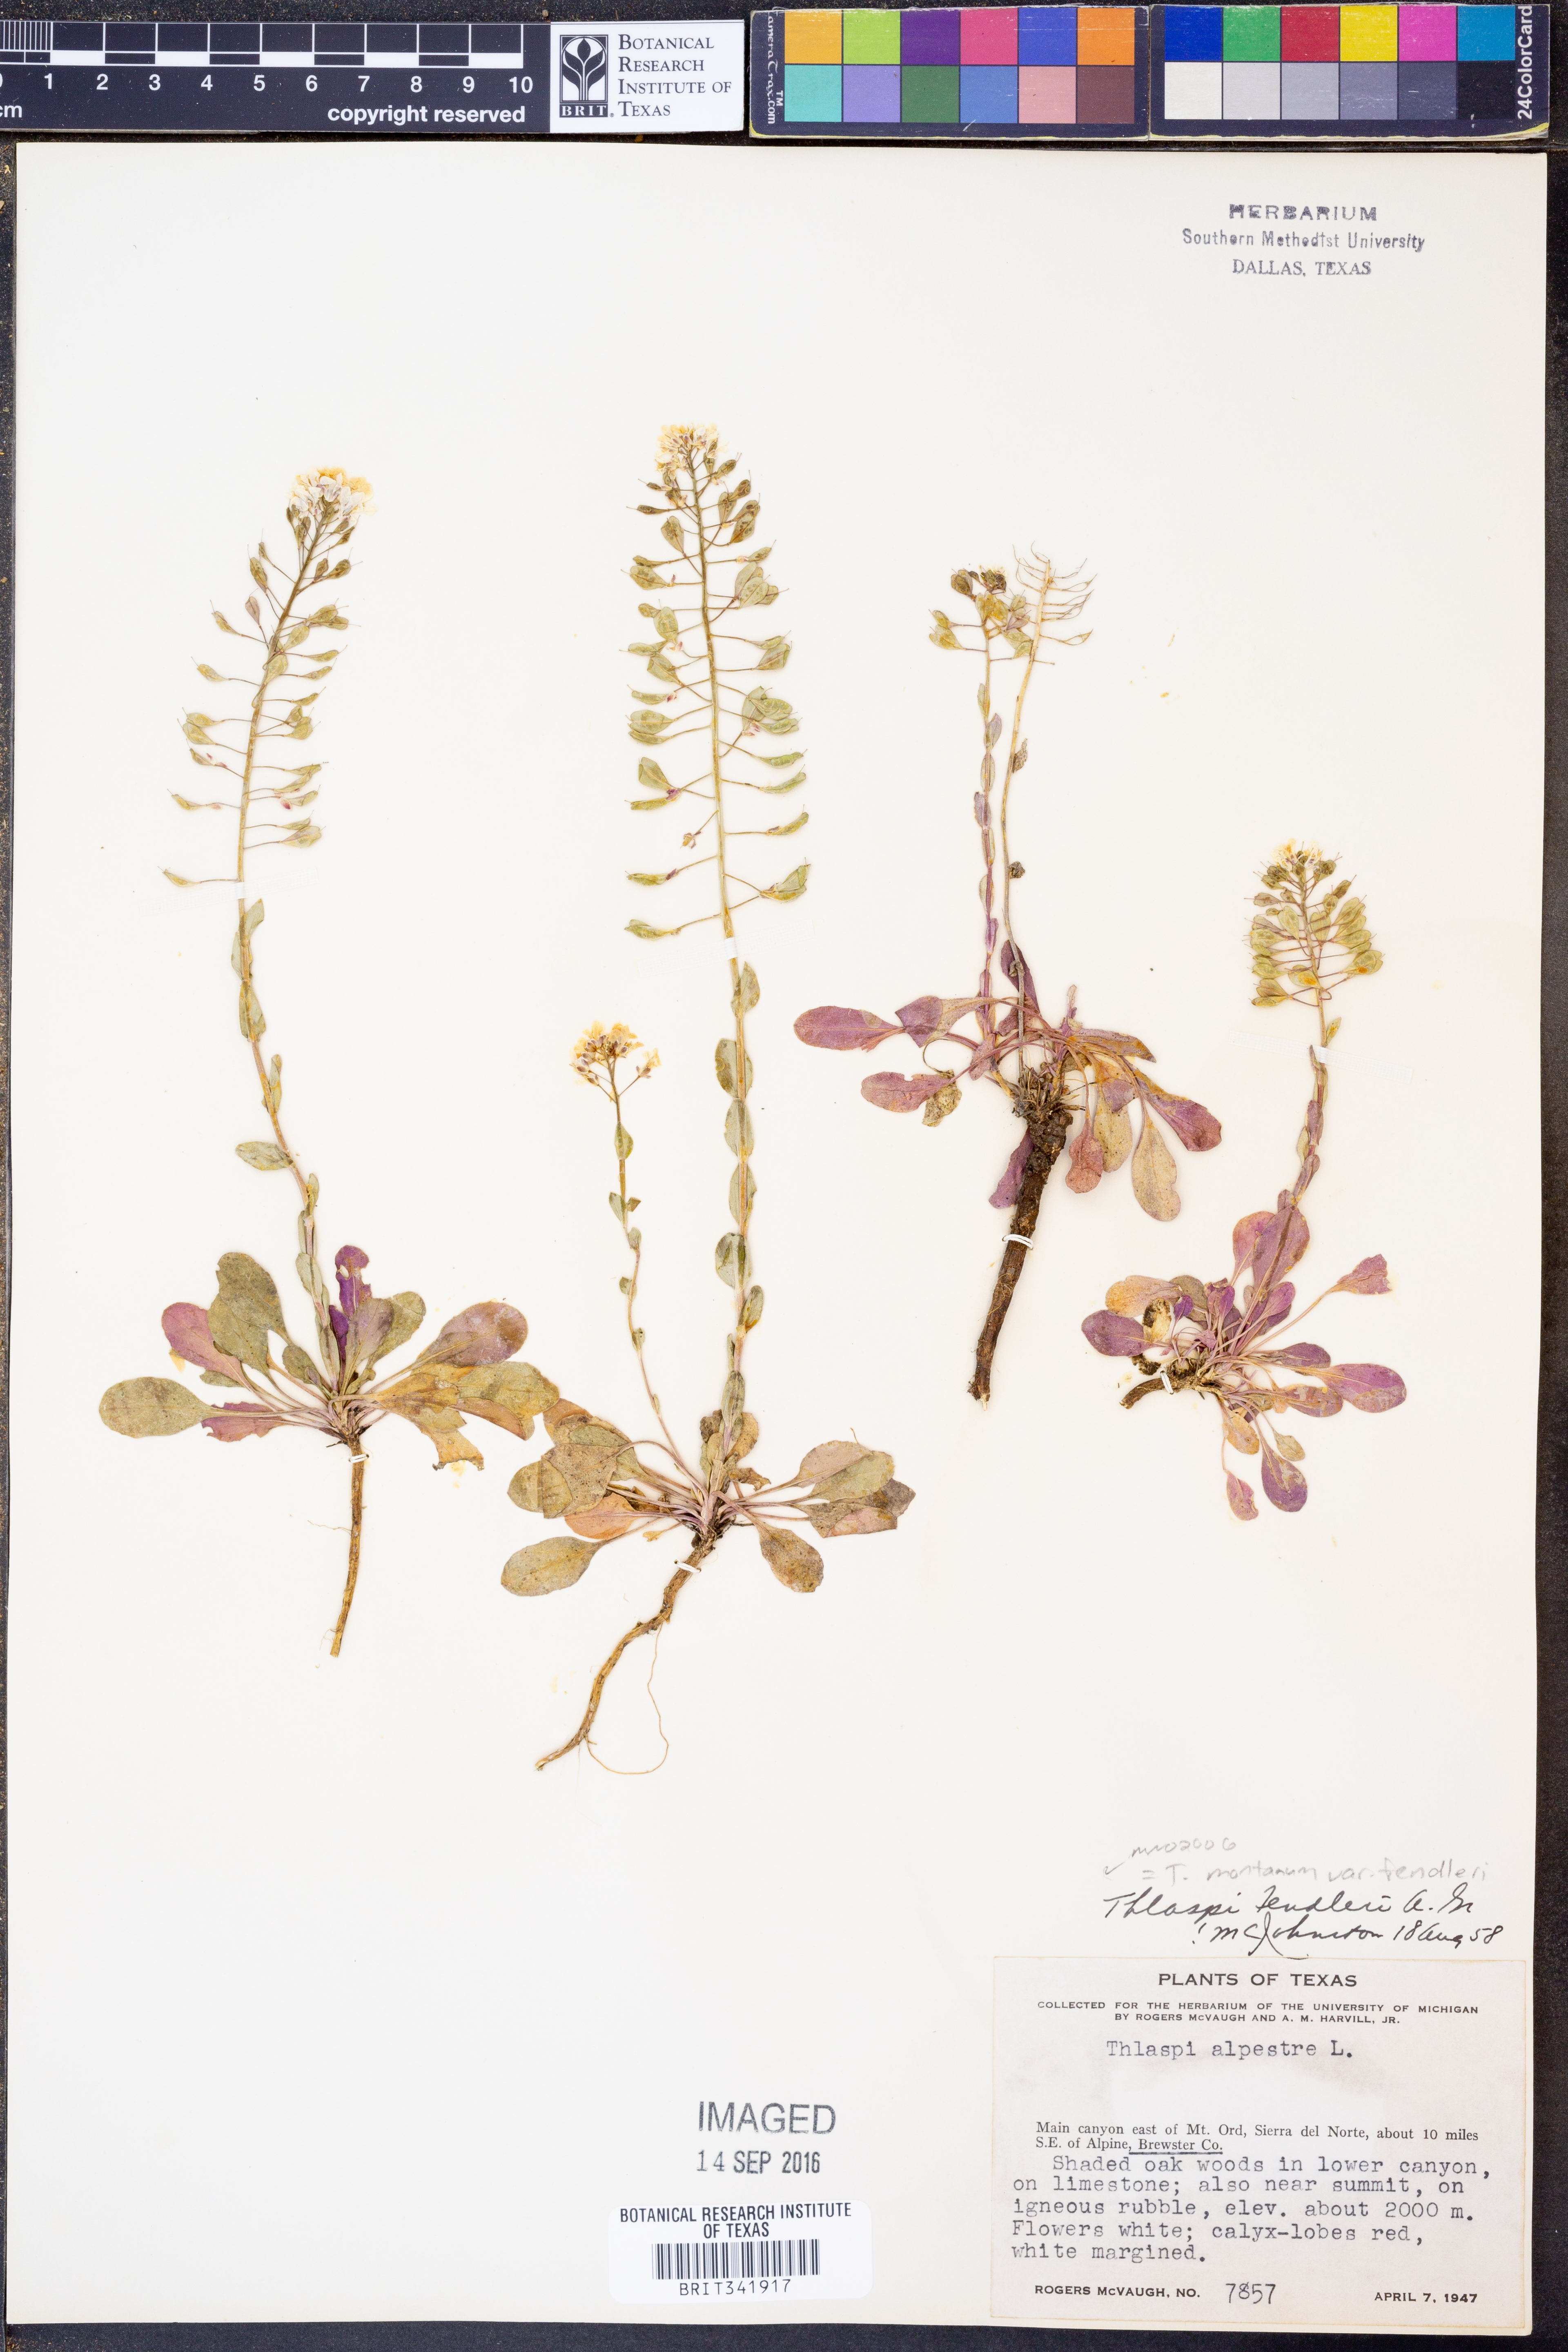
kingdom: Plantae
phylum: Tracheophyta
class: Magnoliopsida
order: Brassicales
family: Brassicaceae
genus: Noccaea
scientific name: Noccaea fendleri
